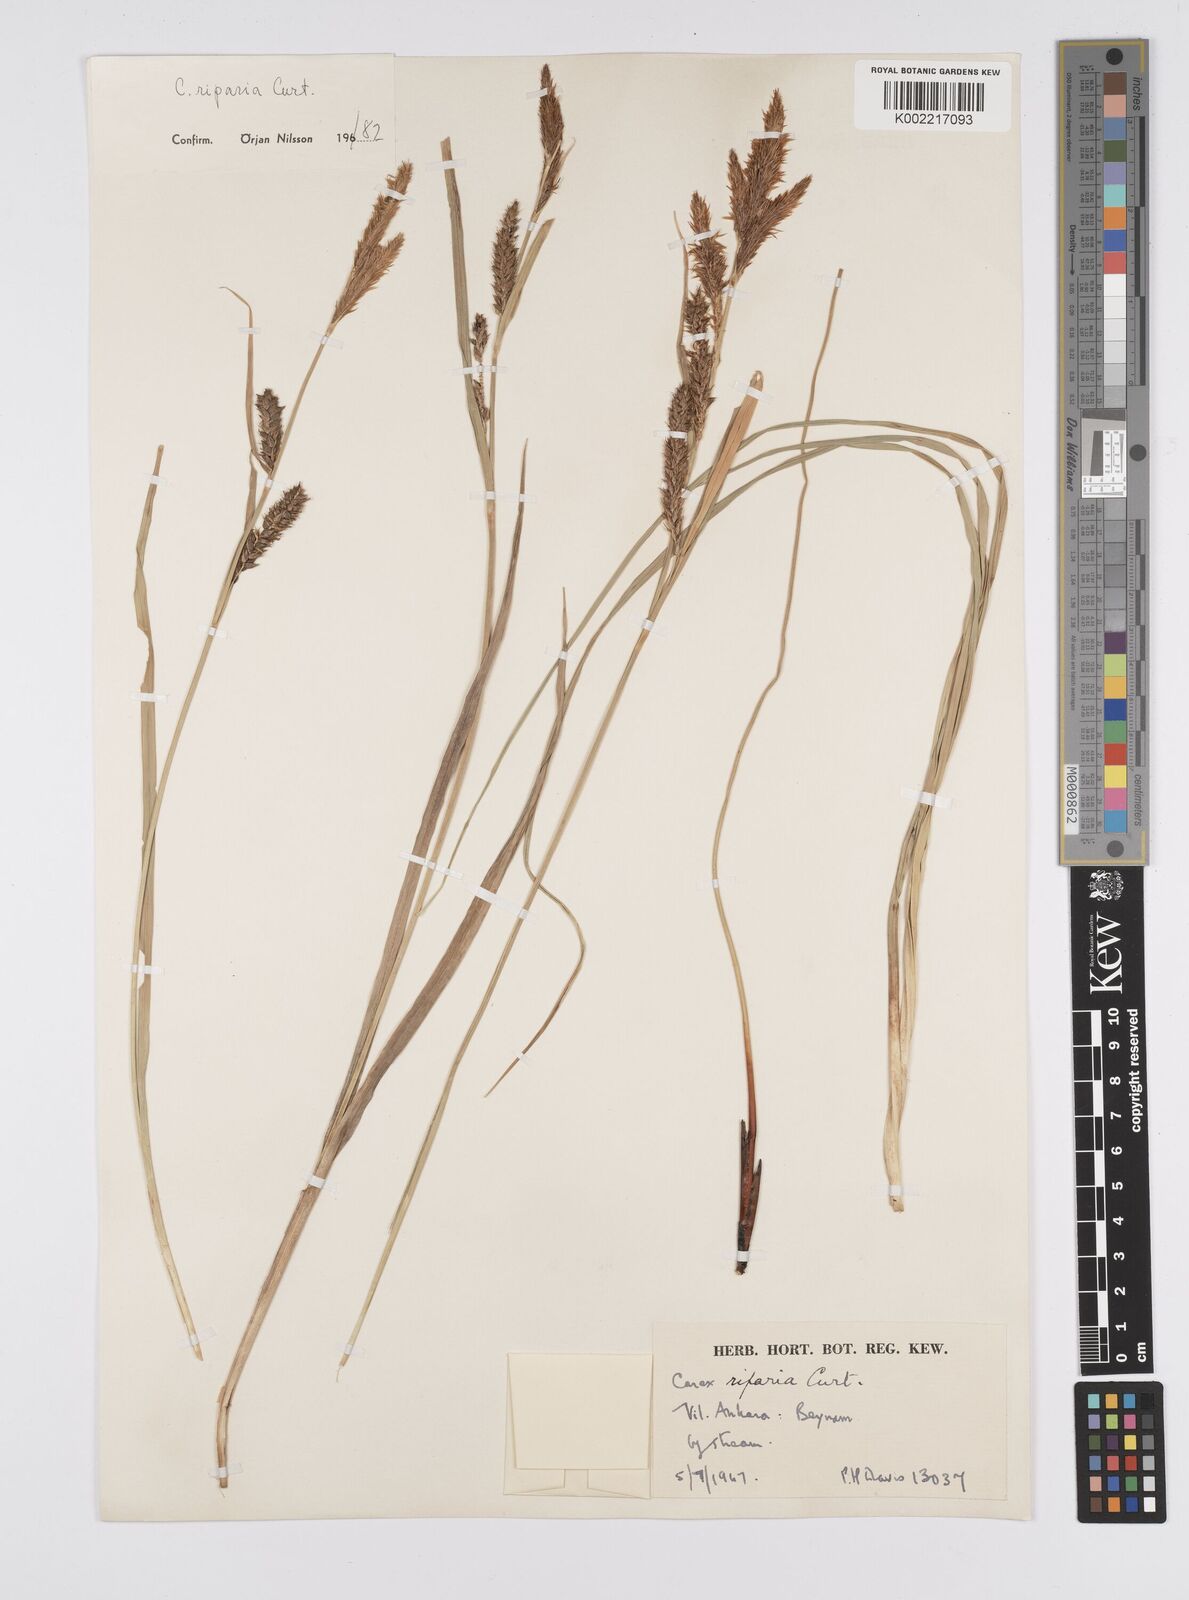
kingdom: Plantae
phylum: Tracheophyta
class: Liliopsida
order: Poales
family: Cyperaceae
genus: Carex
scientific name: Carex riparia
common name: Greater pond-sedge
